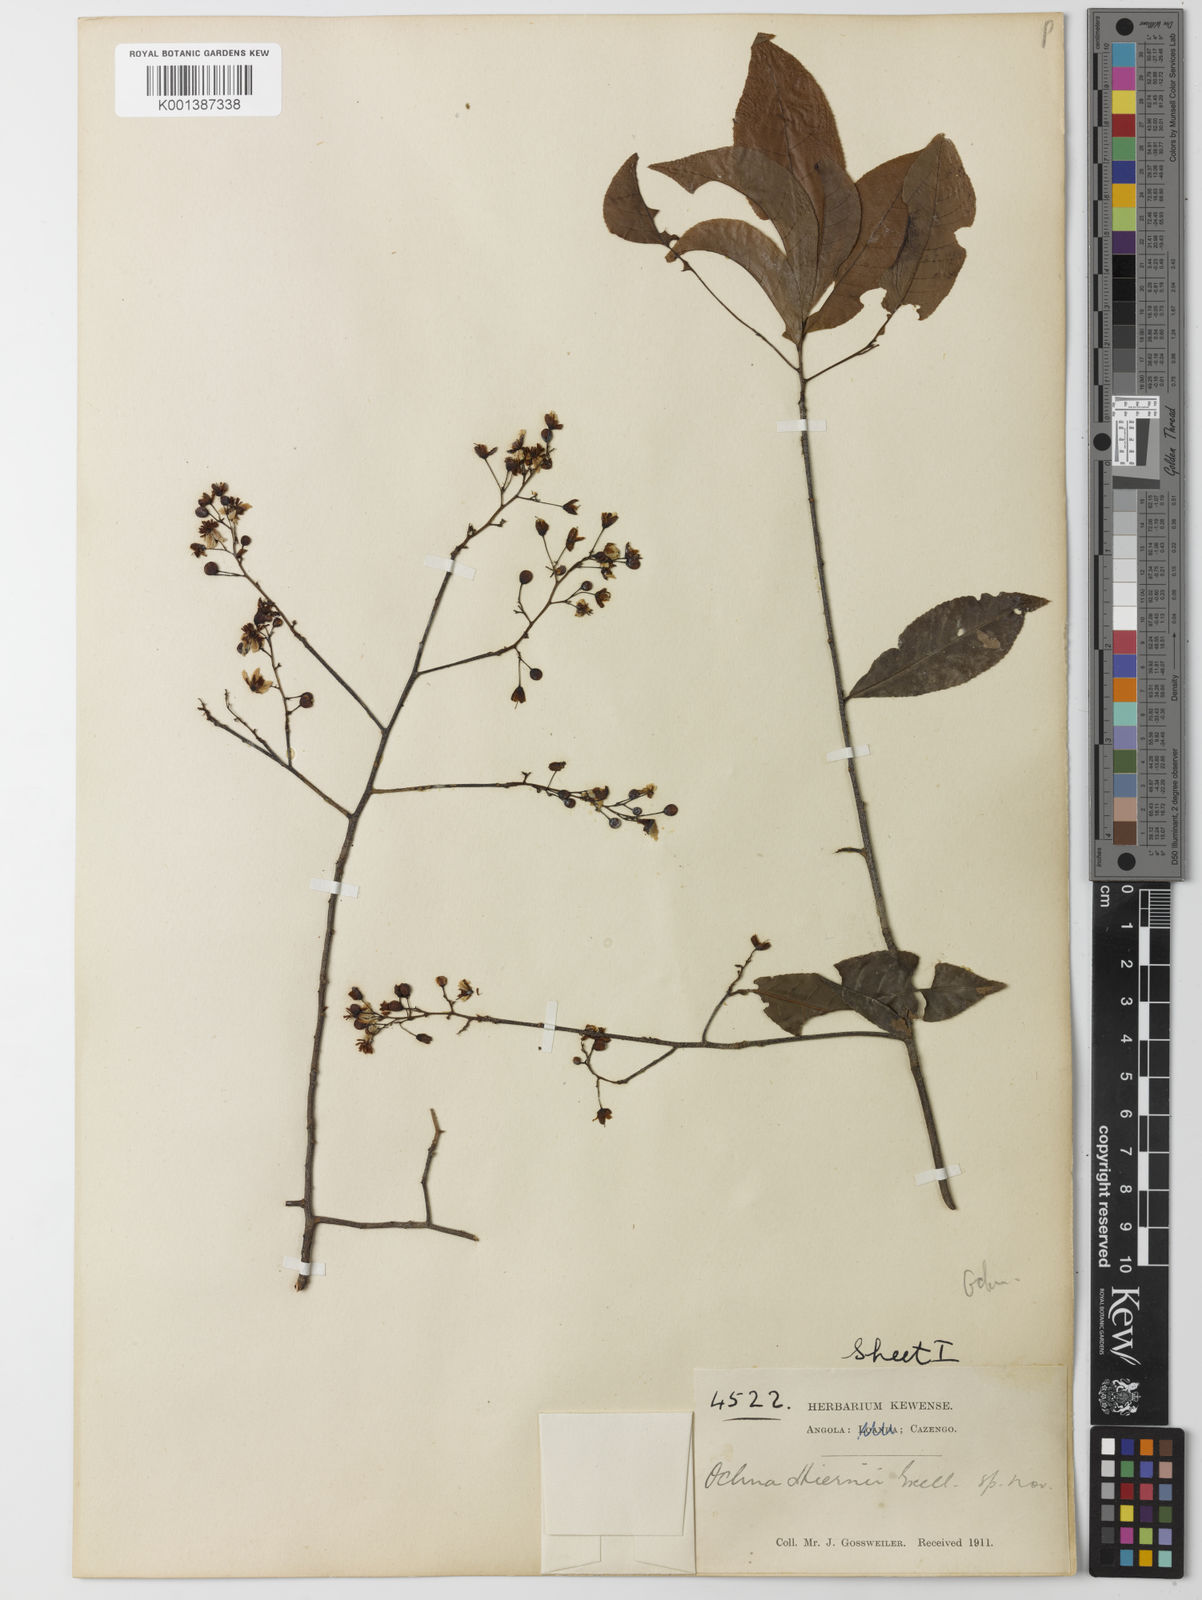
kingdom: Plantae
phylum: Tracheophyta
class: Magnoliopsida
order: Malpighiales
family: Ochnaceae
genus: Ochna
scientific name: Ochna membranacea
